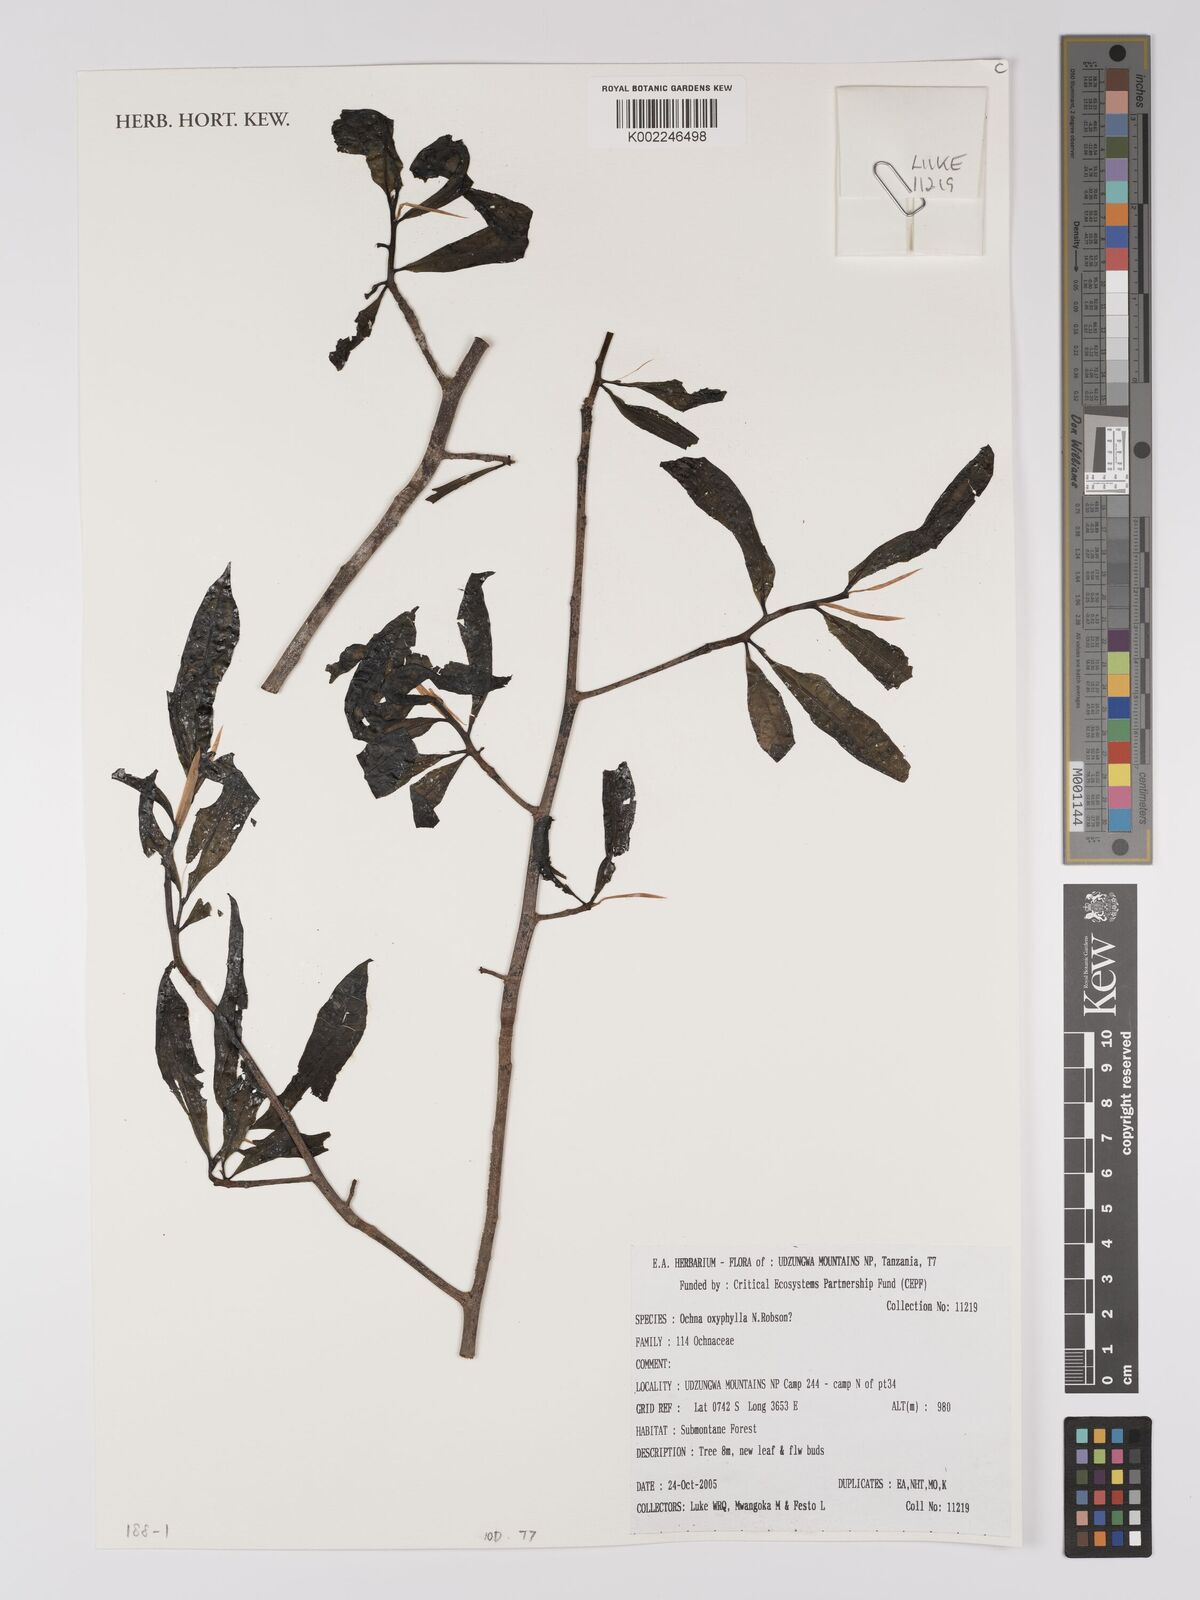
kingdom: Plantae
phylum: Tracheophyta
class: Magnoliopsida
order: Malpighiales
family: Ochnaceae
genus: Ochna
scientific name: Ochna holstii
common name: Red ironwood
